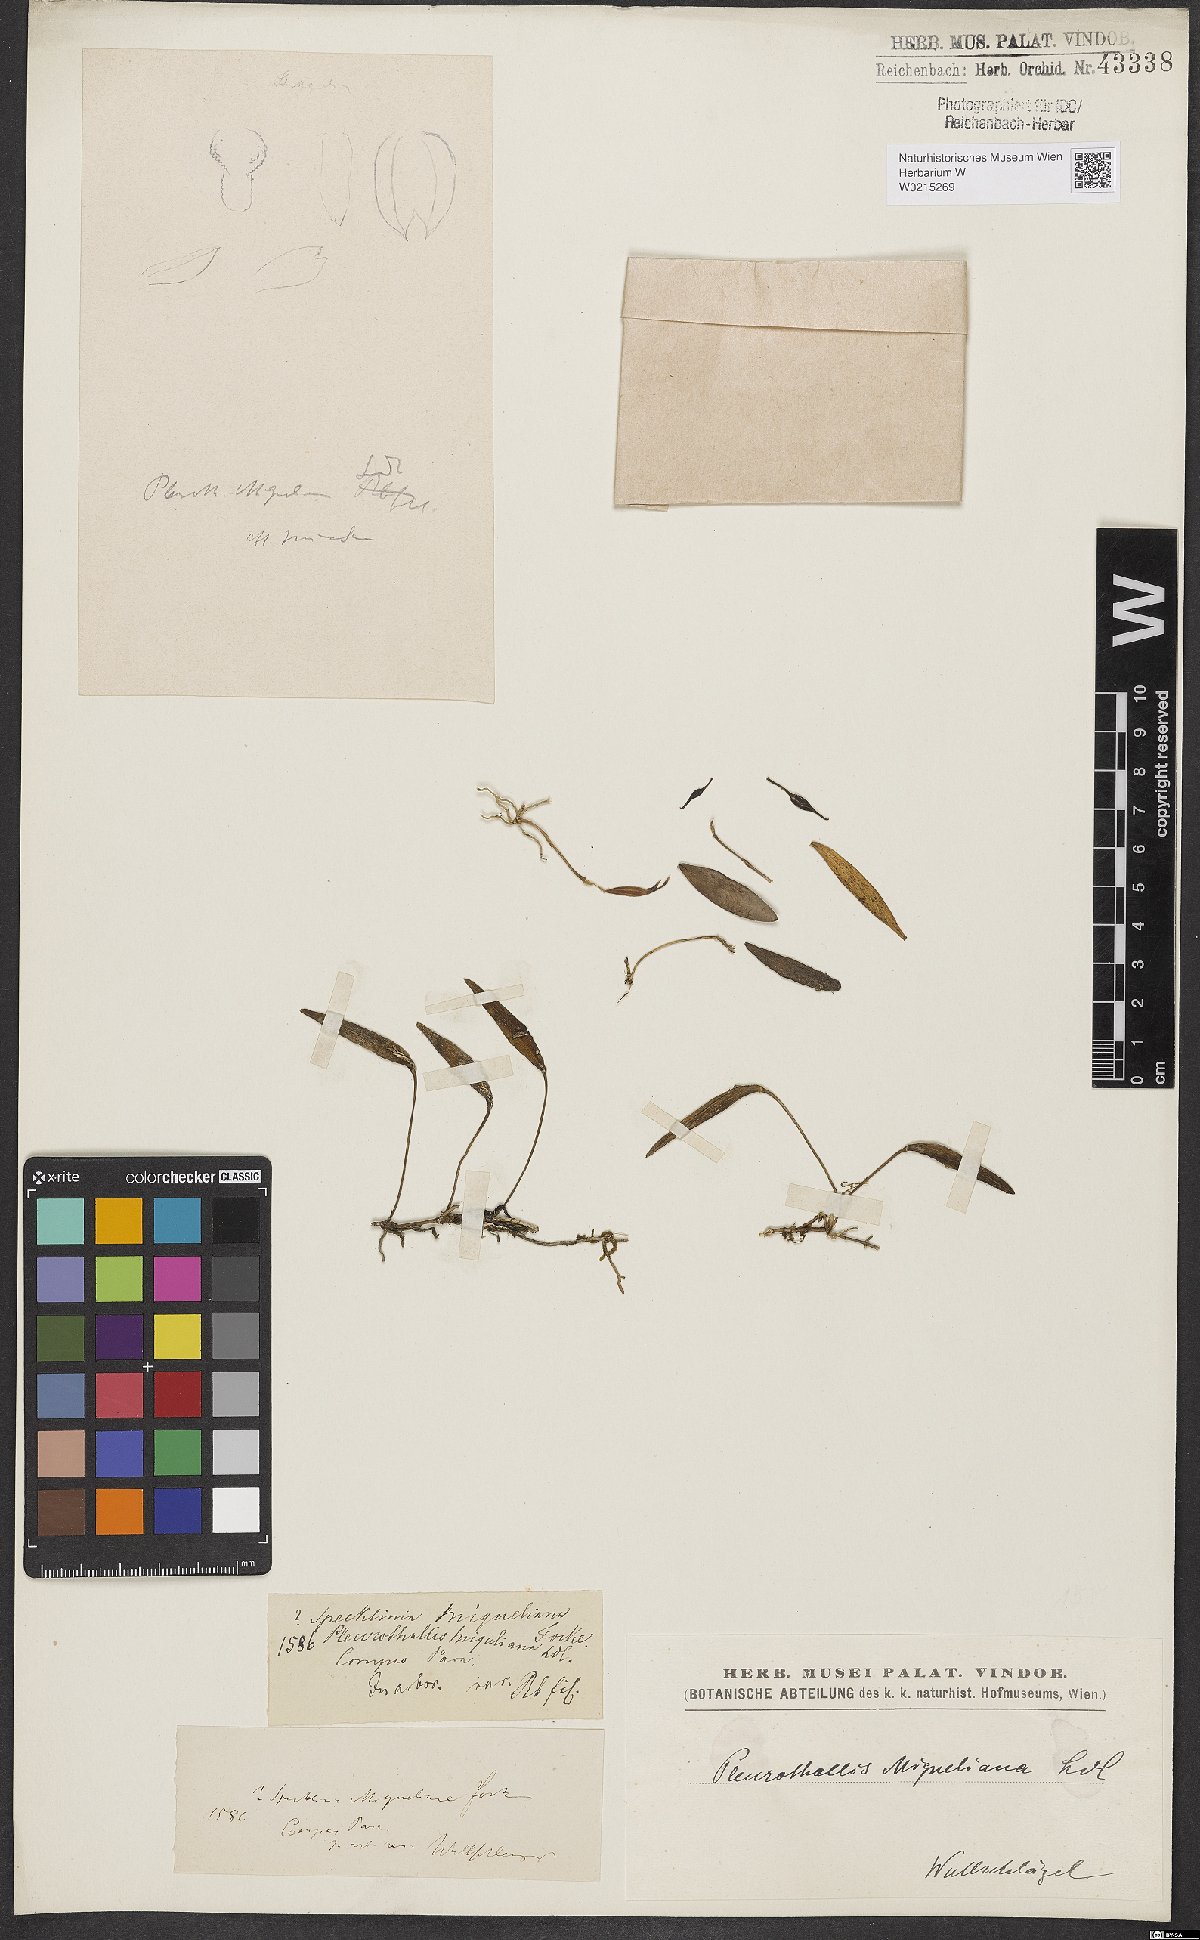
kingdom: Plantae
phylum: Tracheophyta
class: Liliopsida
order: Asparagales
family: Orchidaceae
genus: Pleurothallis
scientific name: Pleurothallis
